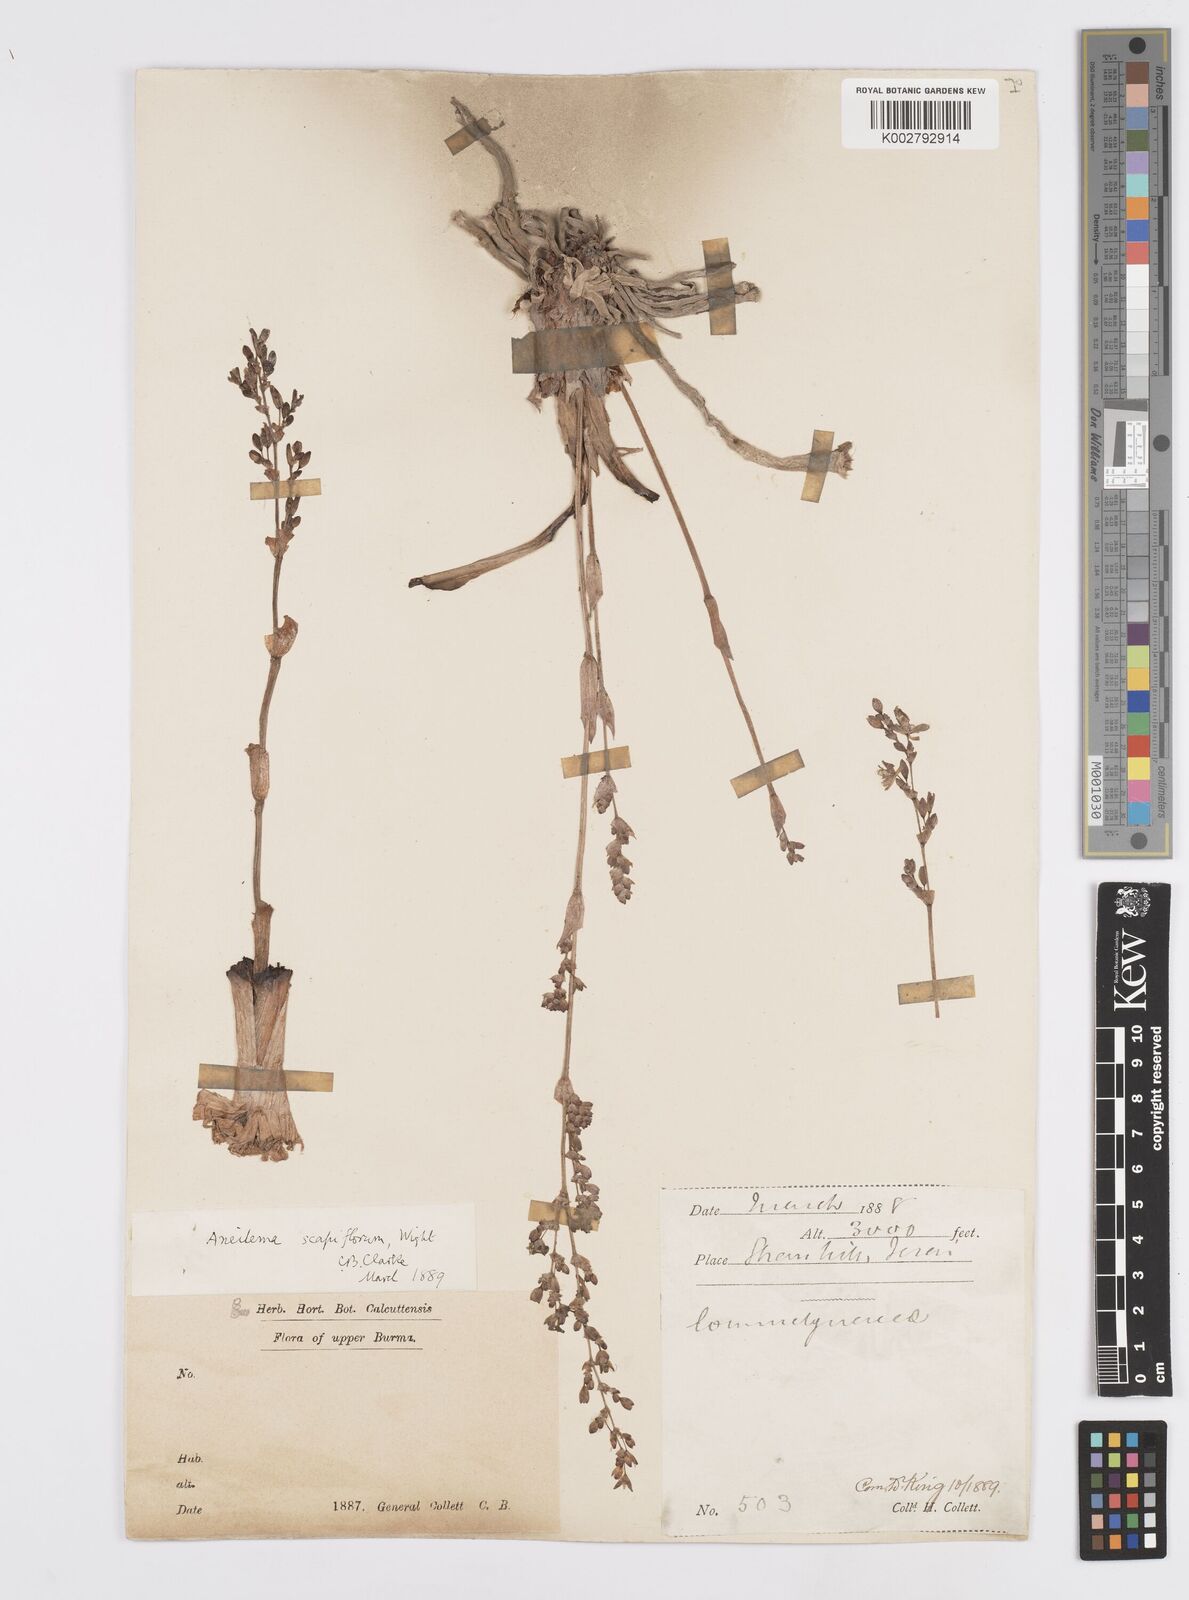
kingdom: Plantae
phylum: Tracheophyta
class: Liliopsida
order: Commelinales
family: Commelinaceae
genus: Murdannia
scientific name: Murdannia edulis
